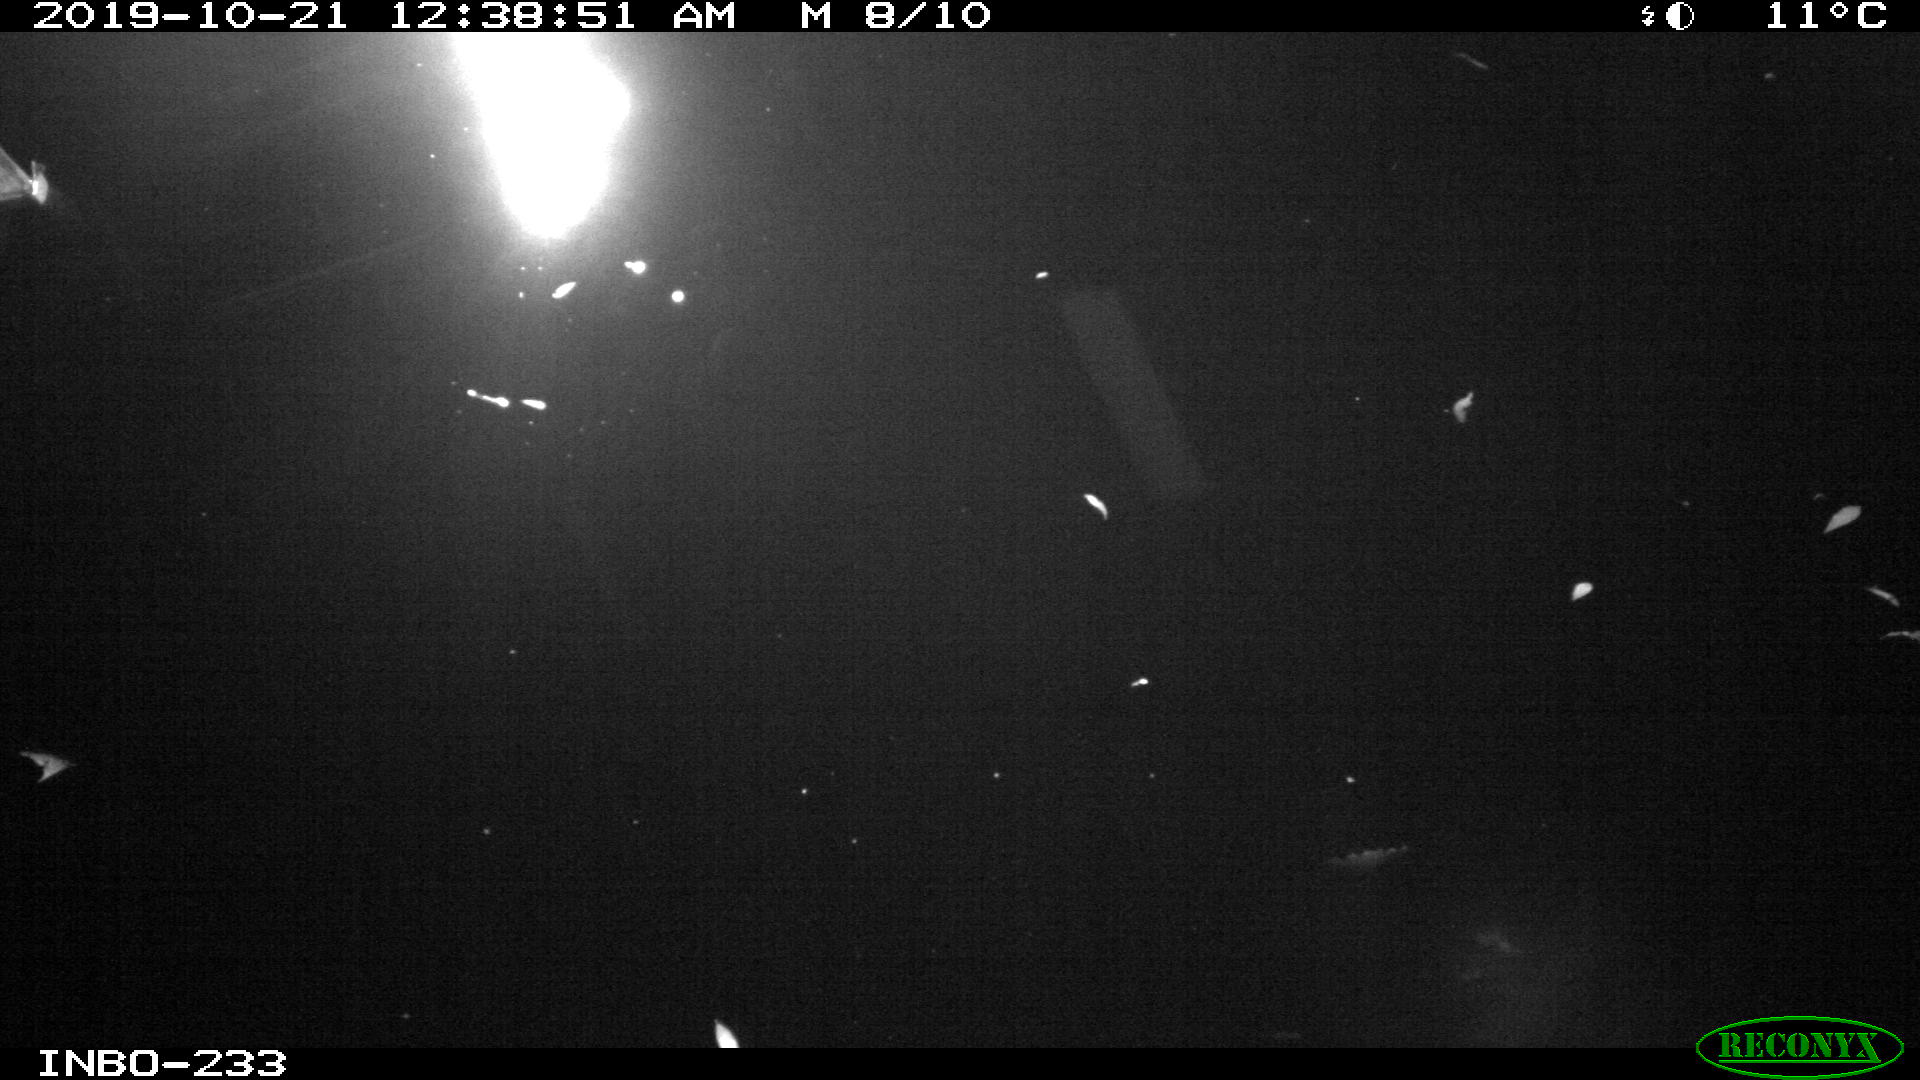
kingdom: Animalia
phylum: Chordata
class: Aves
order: Anseriformes
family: Anatidae
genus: Anas
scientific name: Anas platyrhynchos
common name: Mallard
